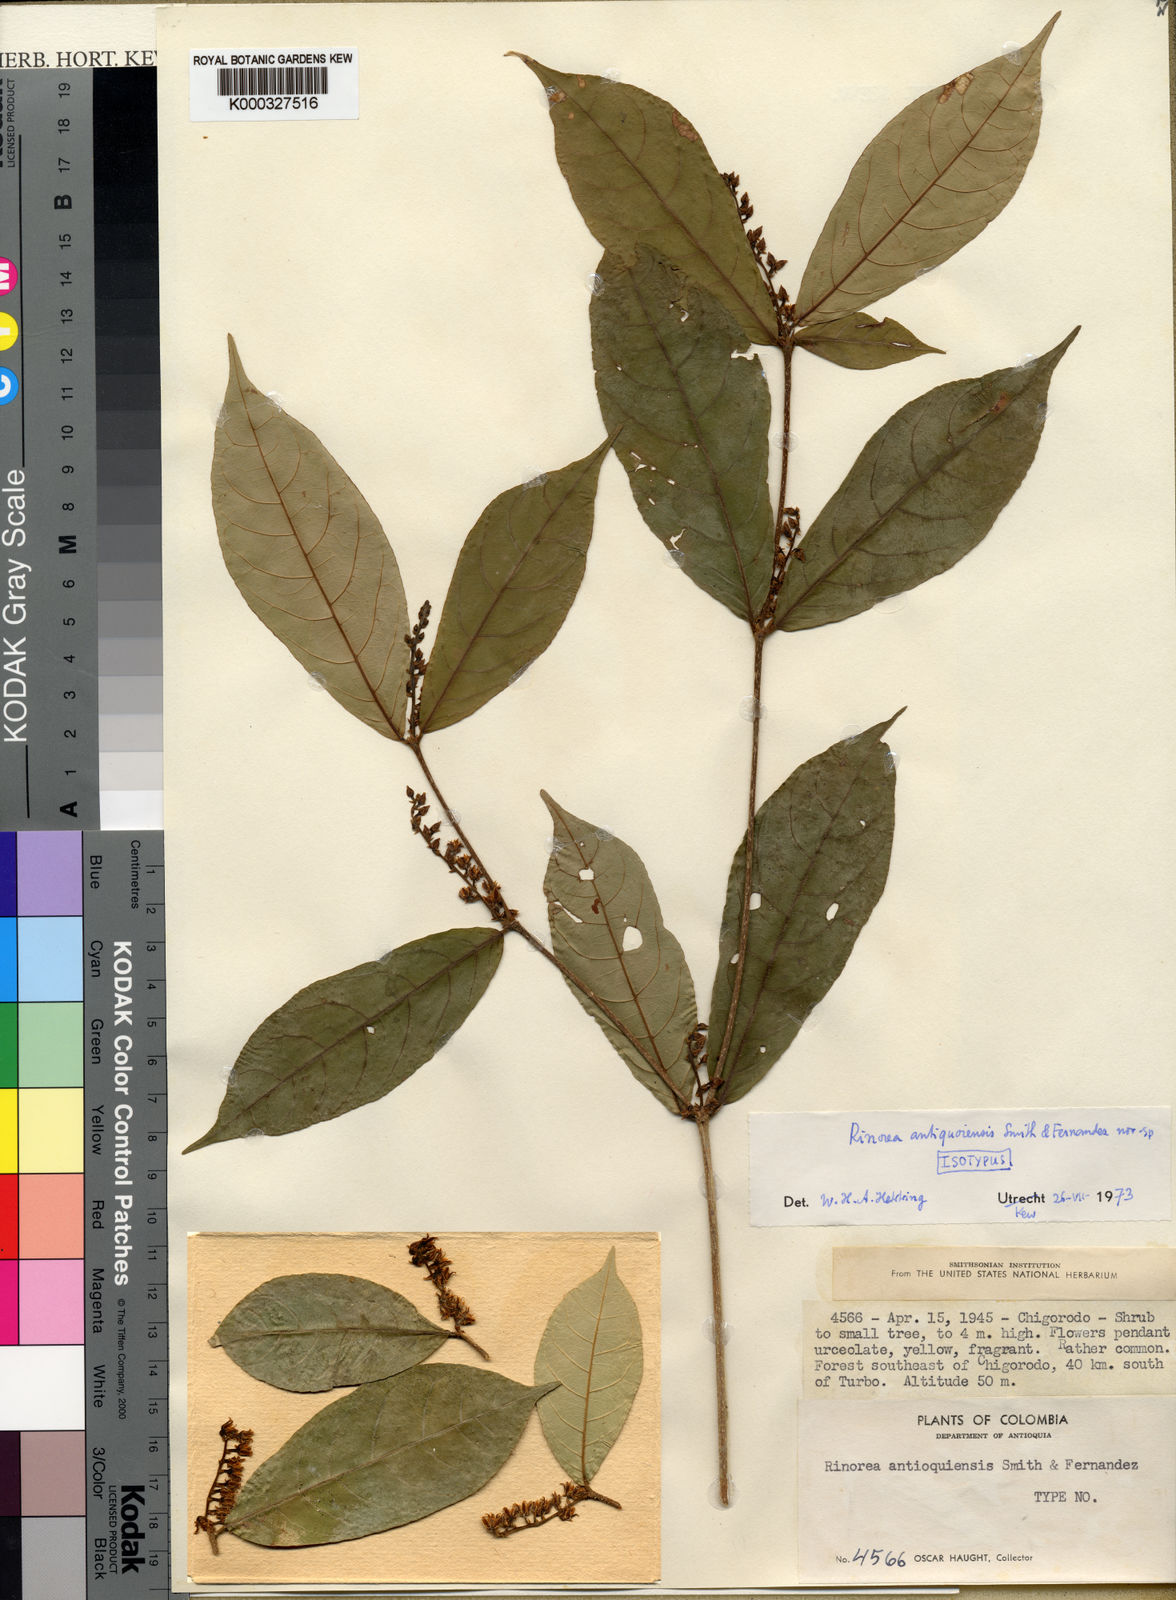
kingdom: Plantae
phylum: Tracheophyta
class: Magnoliopsida
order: Malpighiales
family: Violaceae
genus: Rinorea
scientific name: Rinorea
